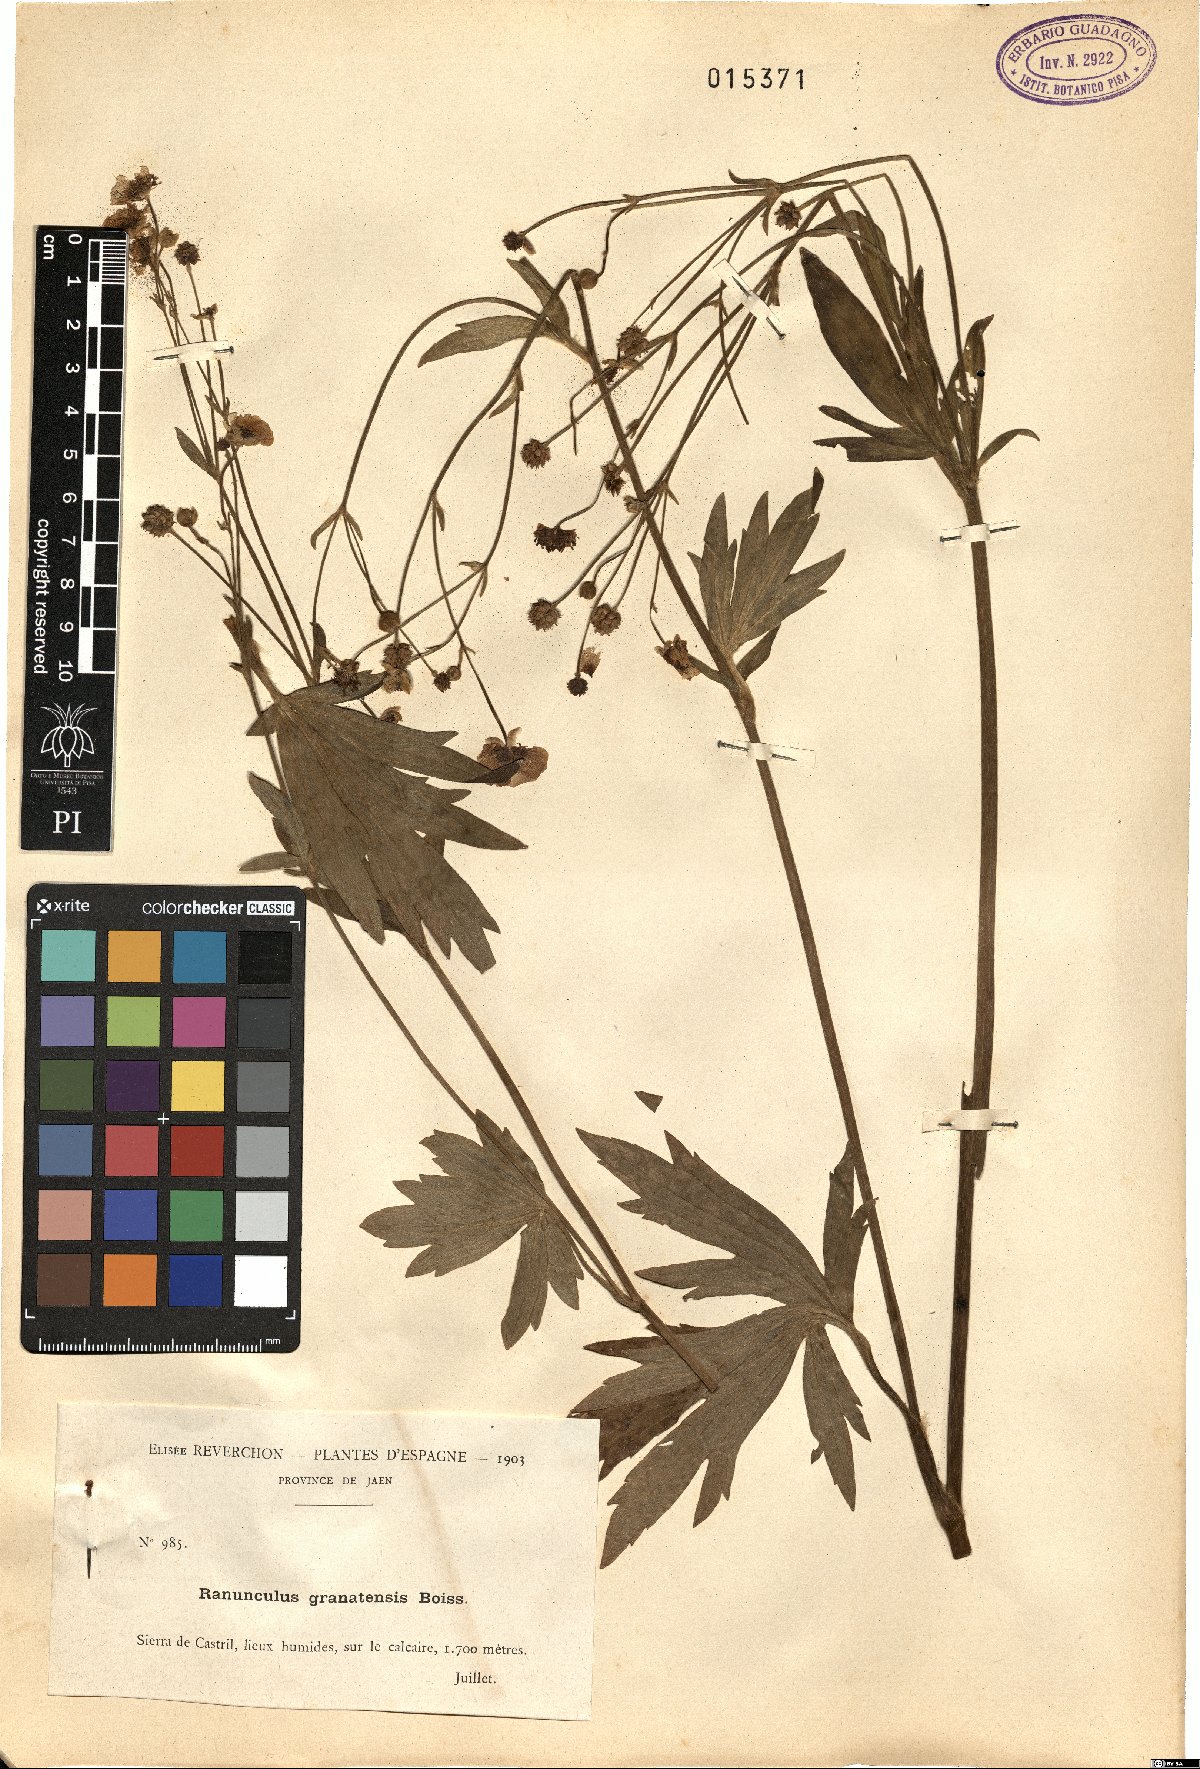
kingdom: Plantae
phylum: Tracheophyta
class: Magnoliopsida
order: Ranunculales
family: Ranunculaceae
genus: Ranunculus
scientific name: Ranunculus granatensis
